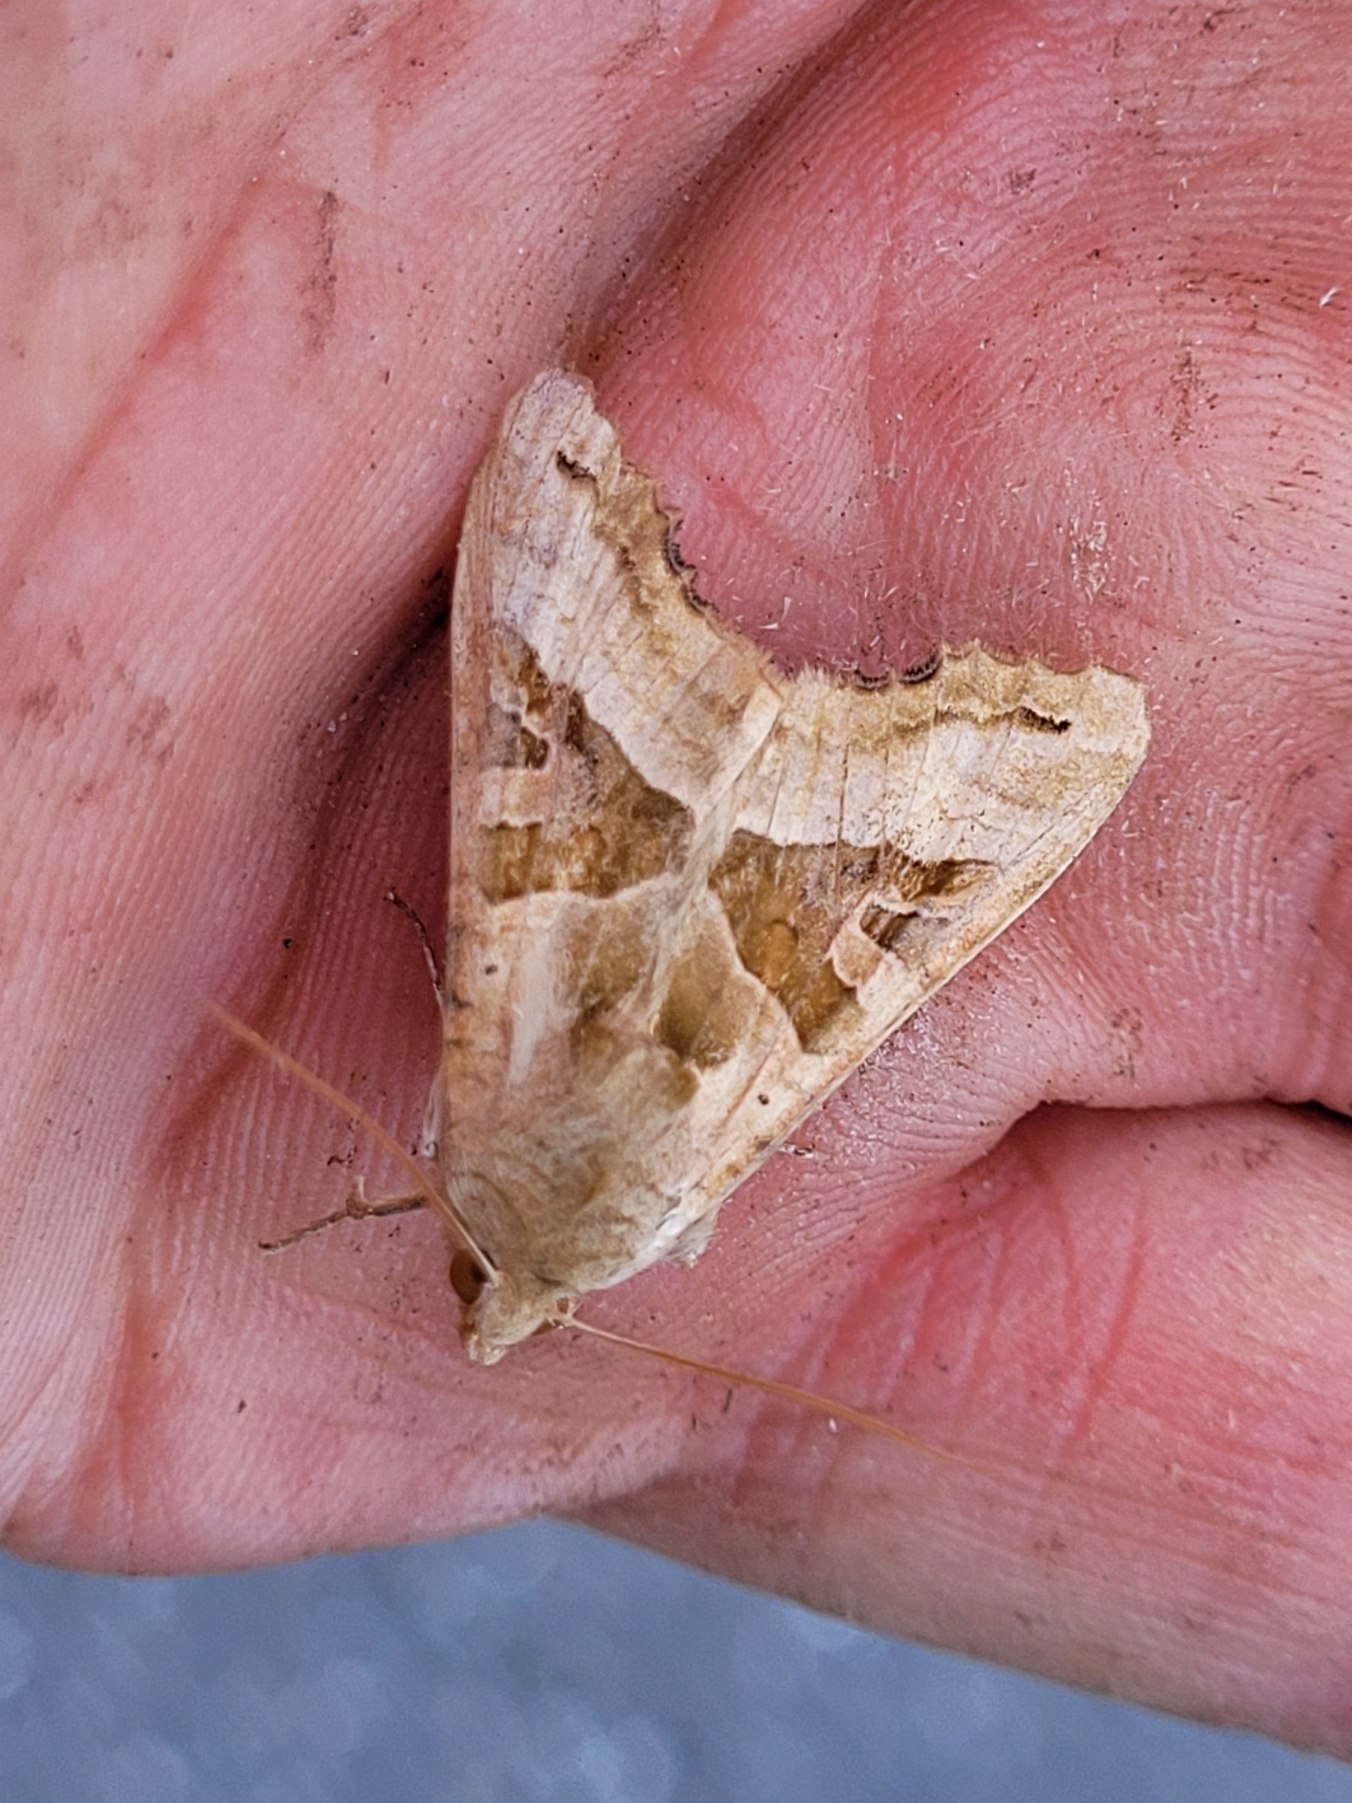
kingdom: Animalia
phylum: Arthropoda
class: Insecta
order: Lepidoptera
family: Noctuidae
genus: Phlogophora
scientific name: Phlogophora meticulosa
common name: Agatugle
